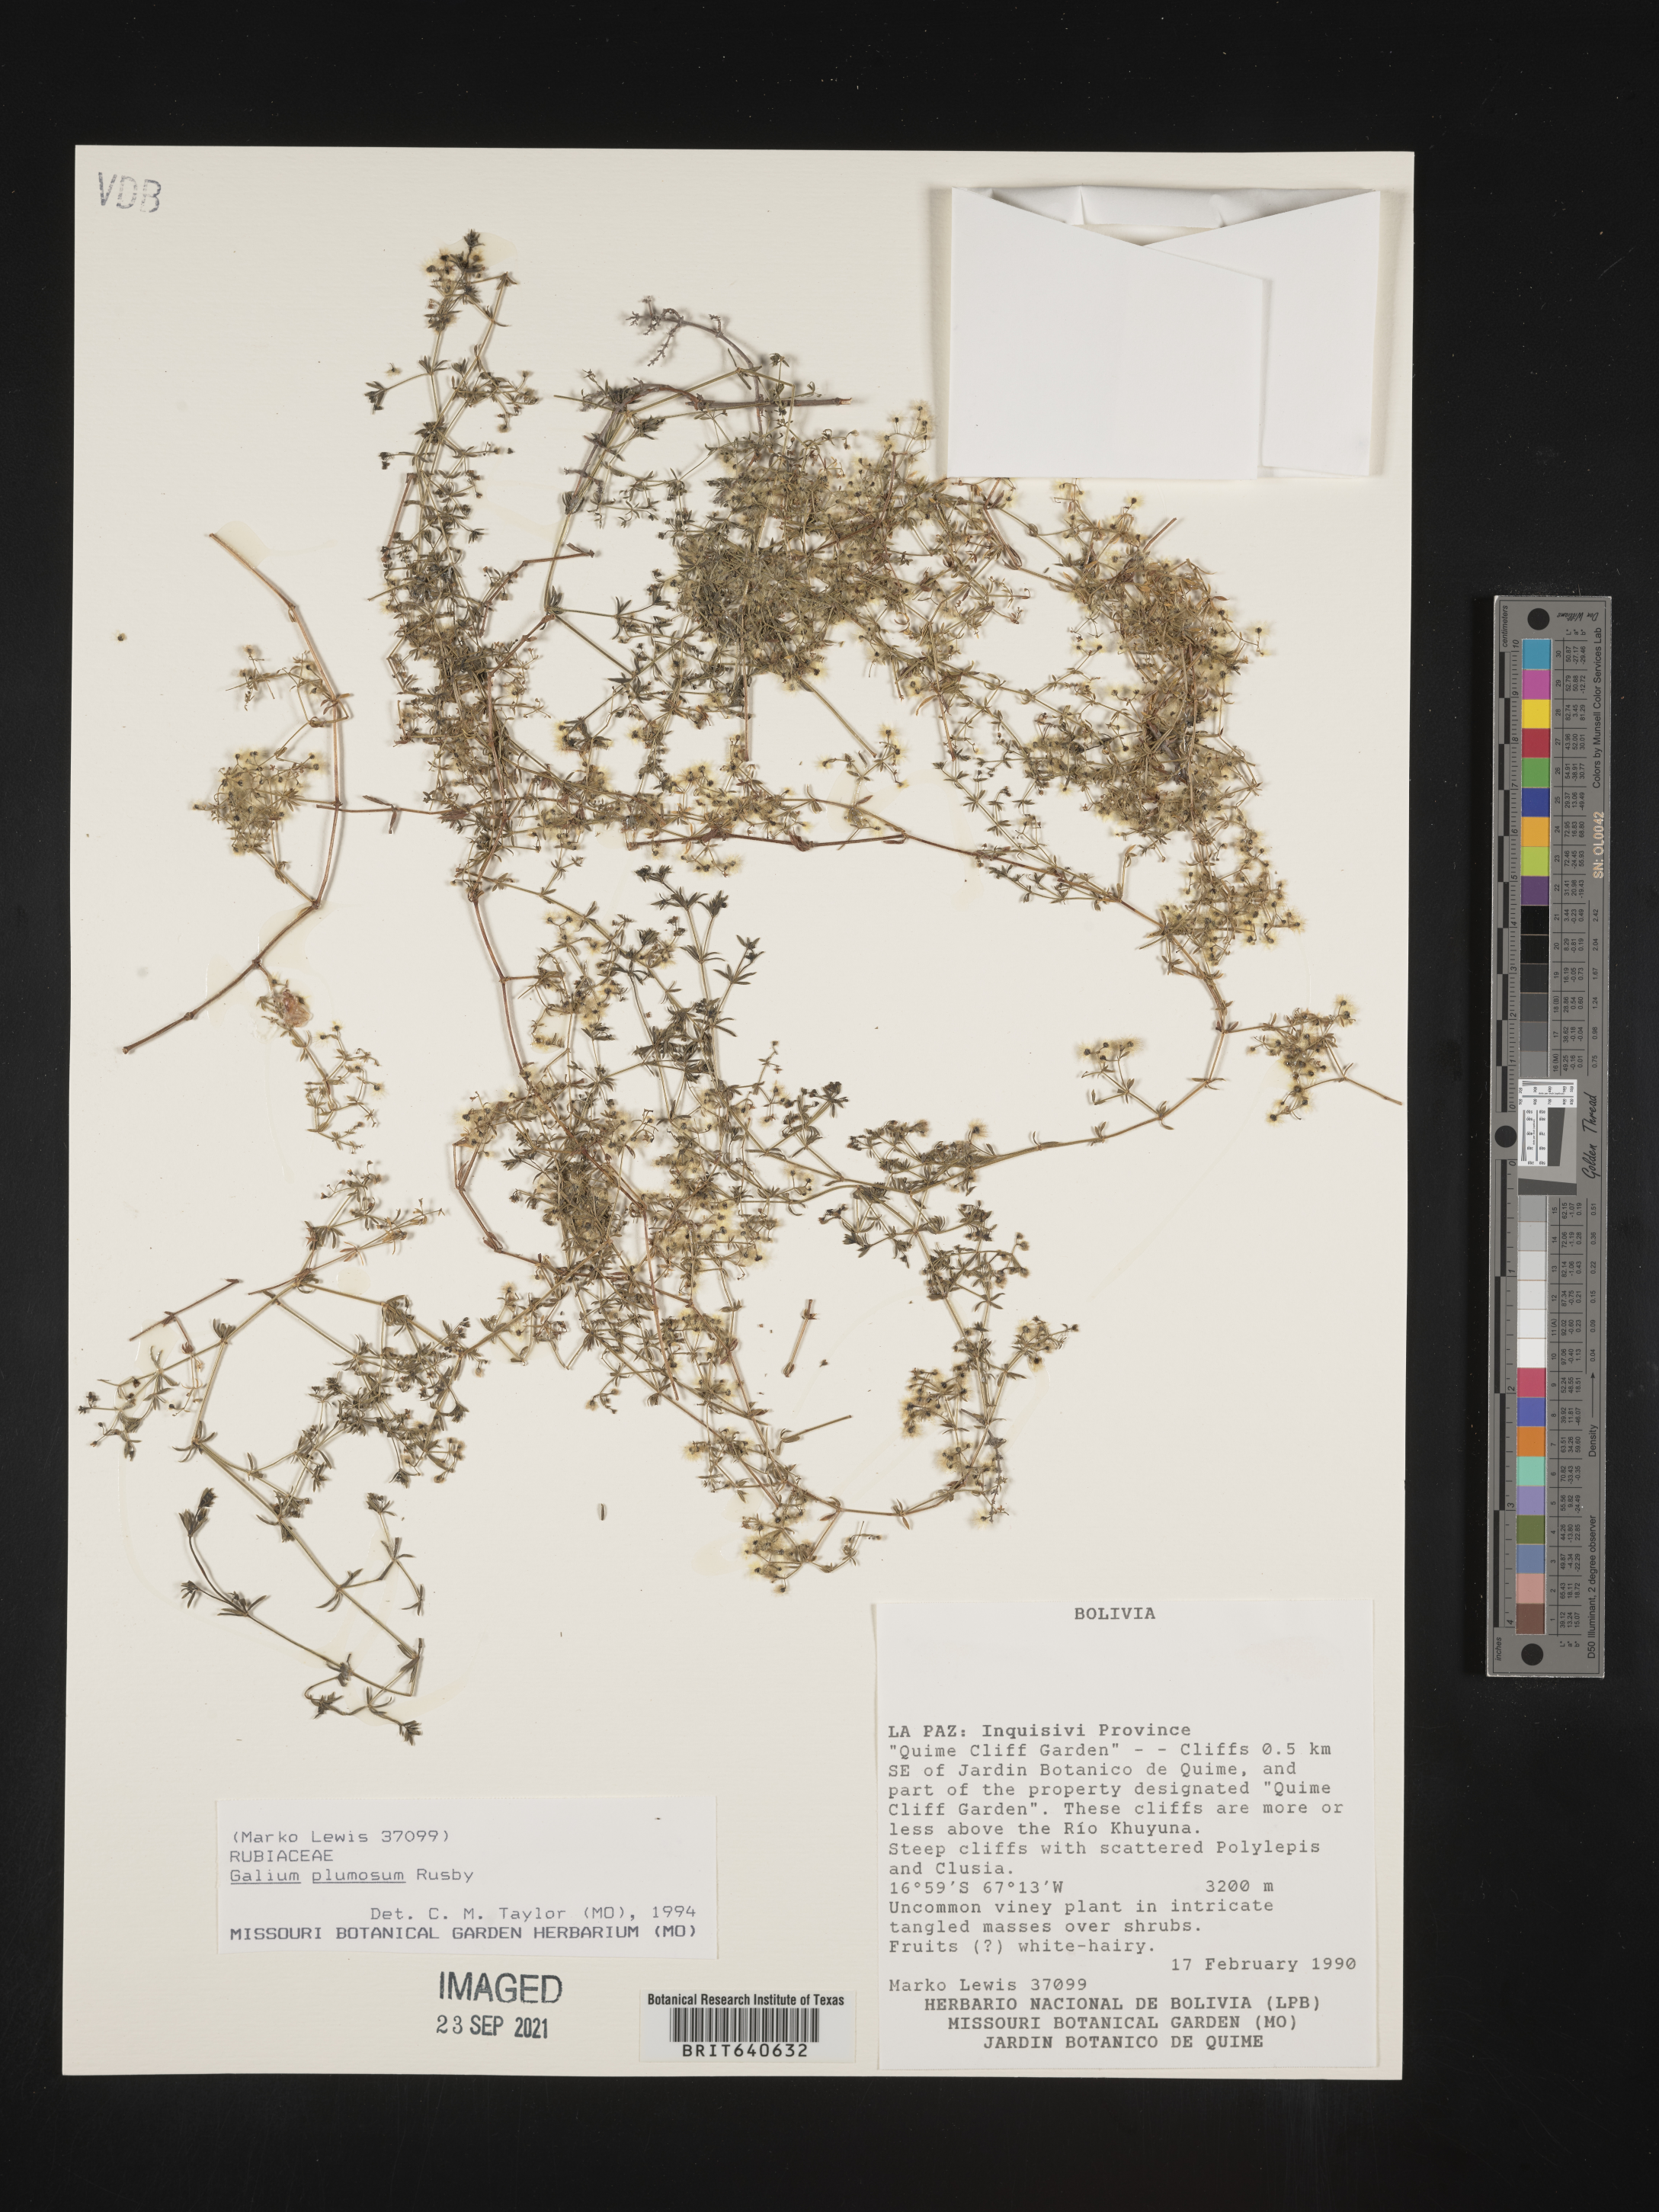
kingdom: Plantae
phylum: Tracheophyta
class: Magnoliopsida
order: Gentianales
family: Rubiaceae
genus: Galium
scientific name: Galium
